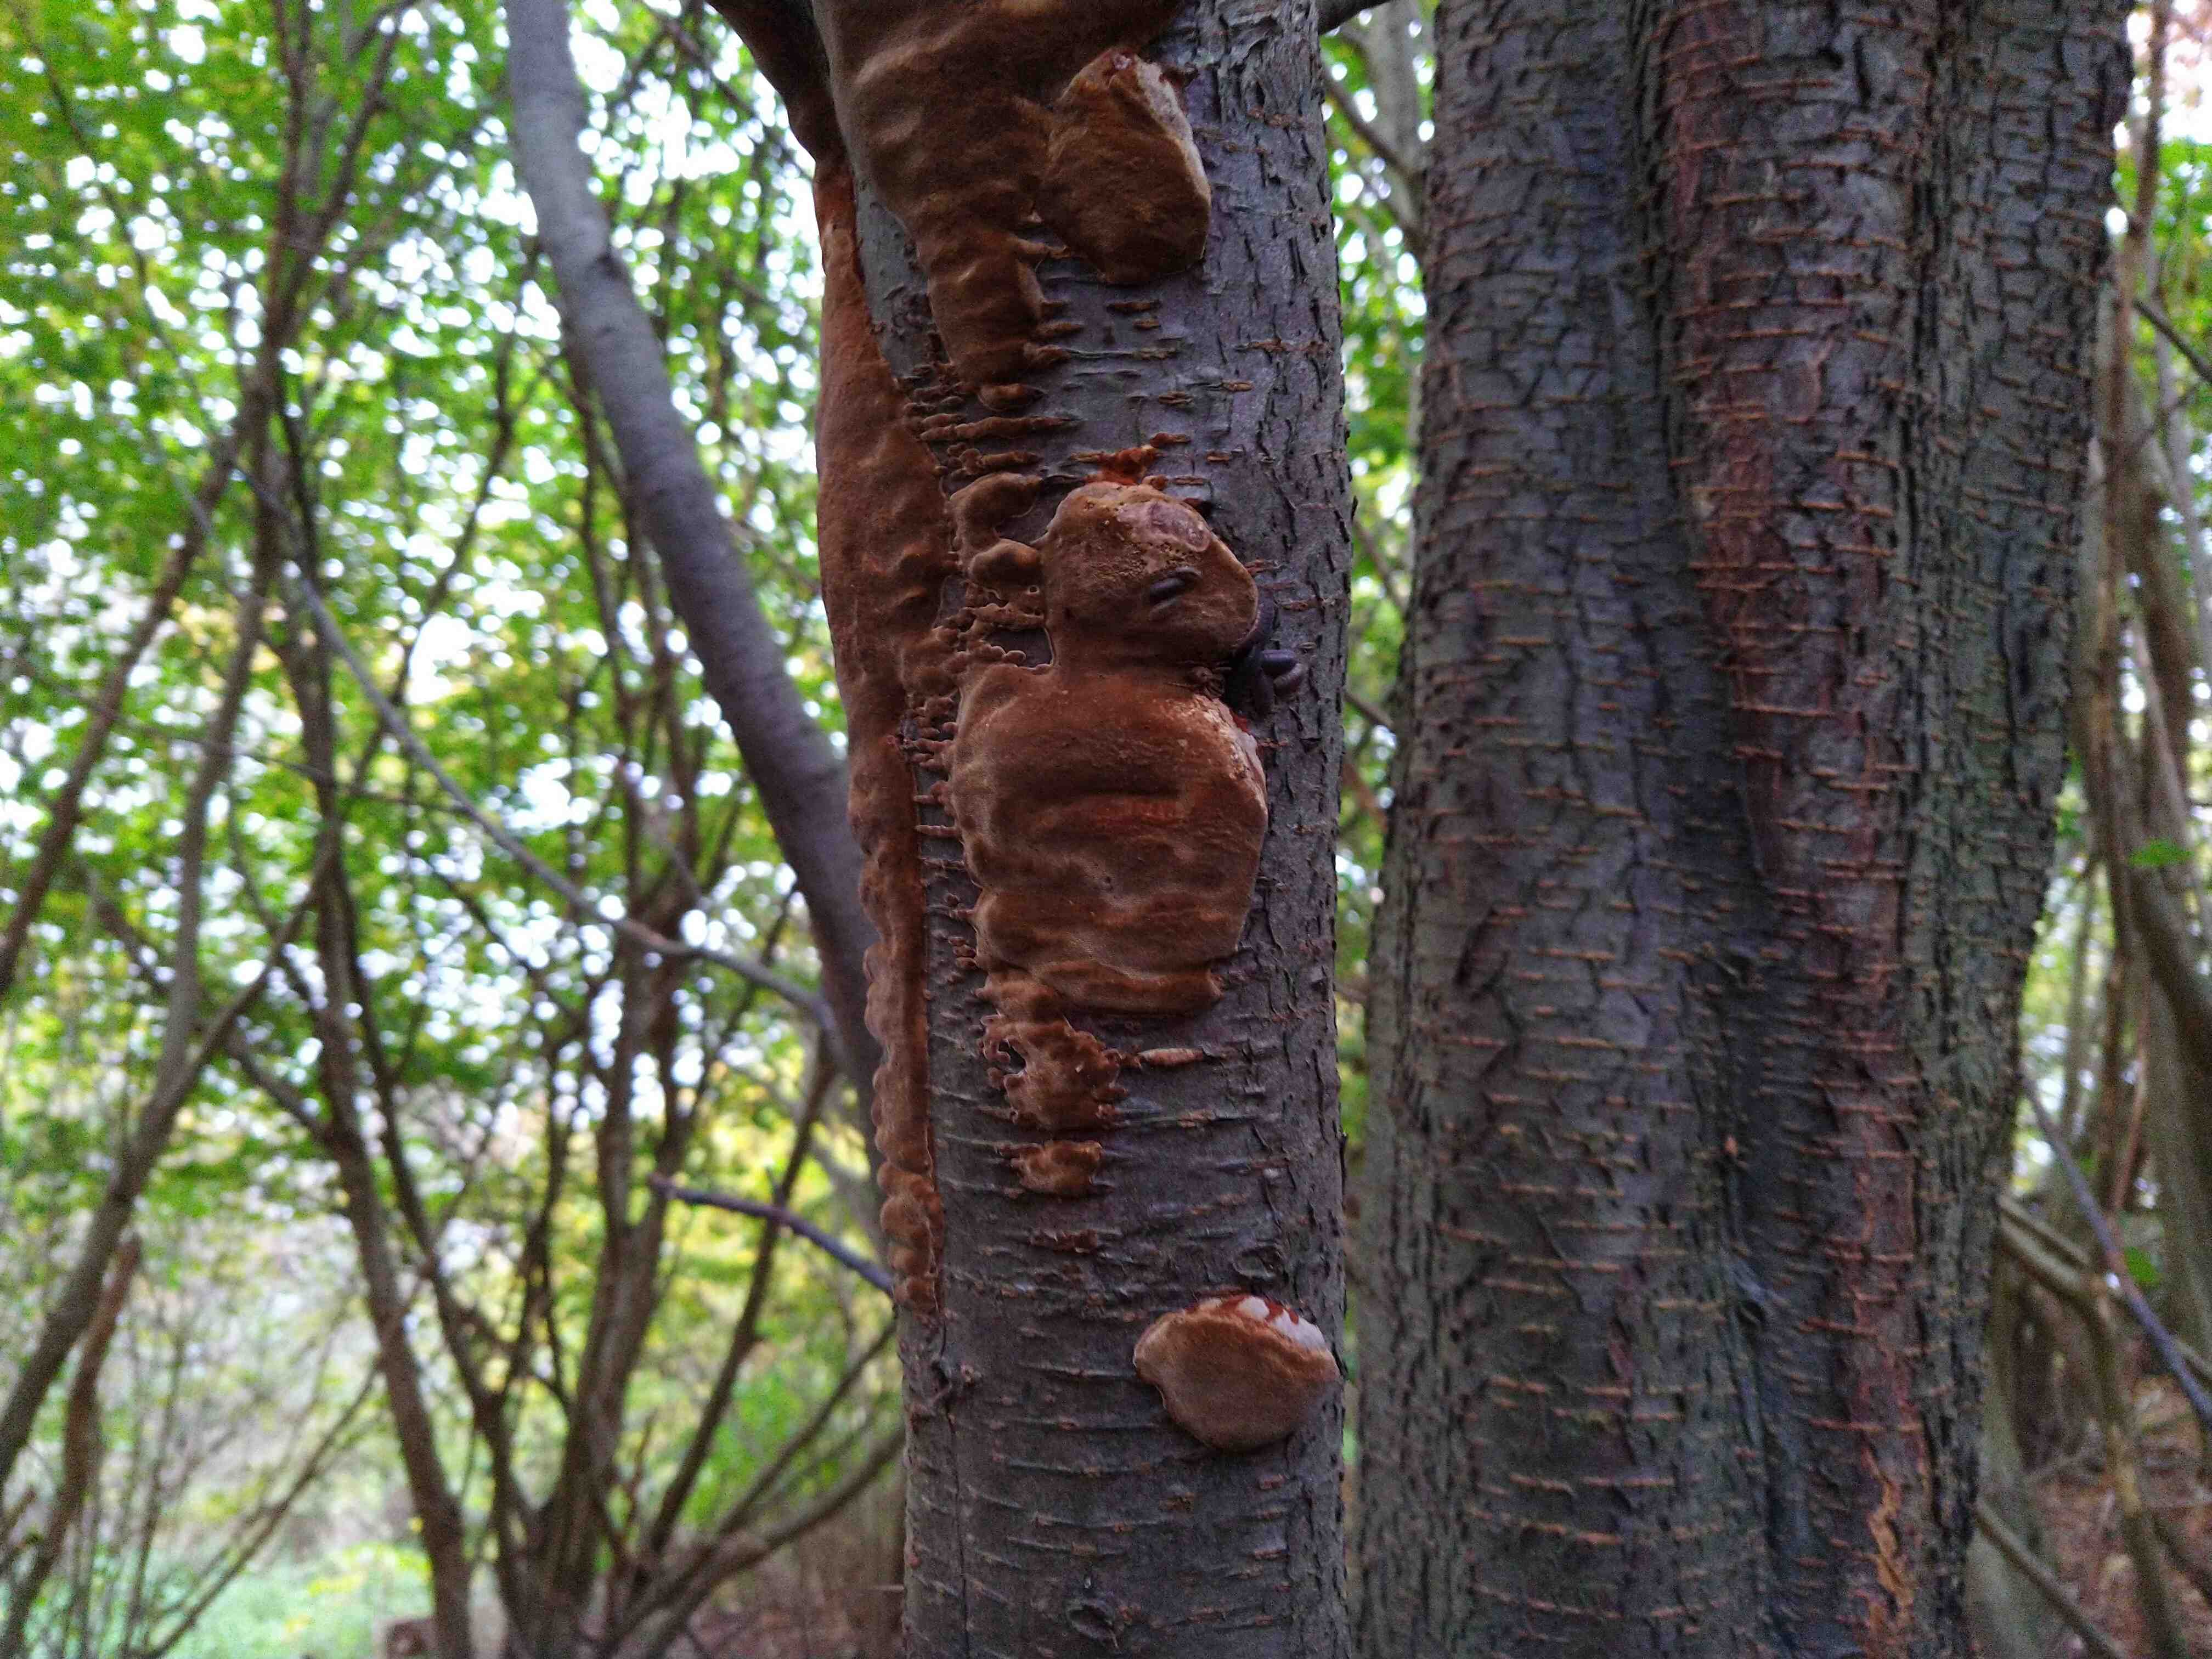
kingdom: Fungi
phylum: Basidiomycota
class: Agaricomycetes
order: Hymenochaetales
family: Hymenochaetaceae
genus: Phellinus
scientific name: Phellinus pomaceus
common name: blomme-ildporesvamp
